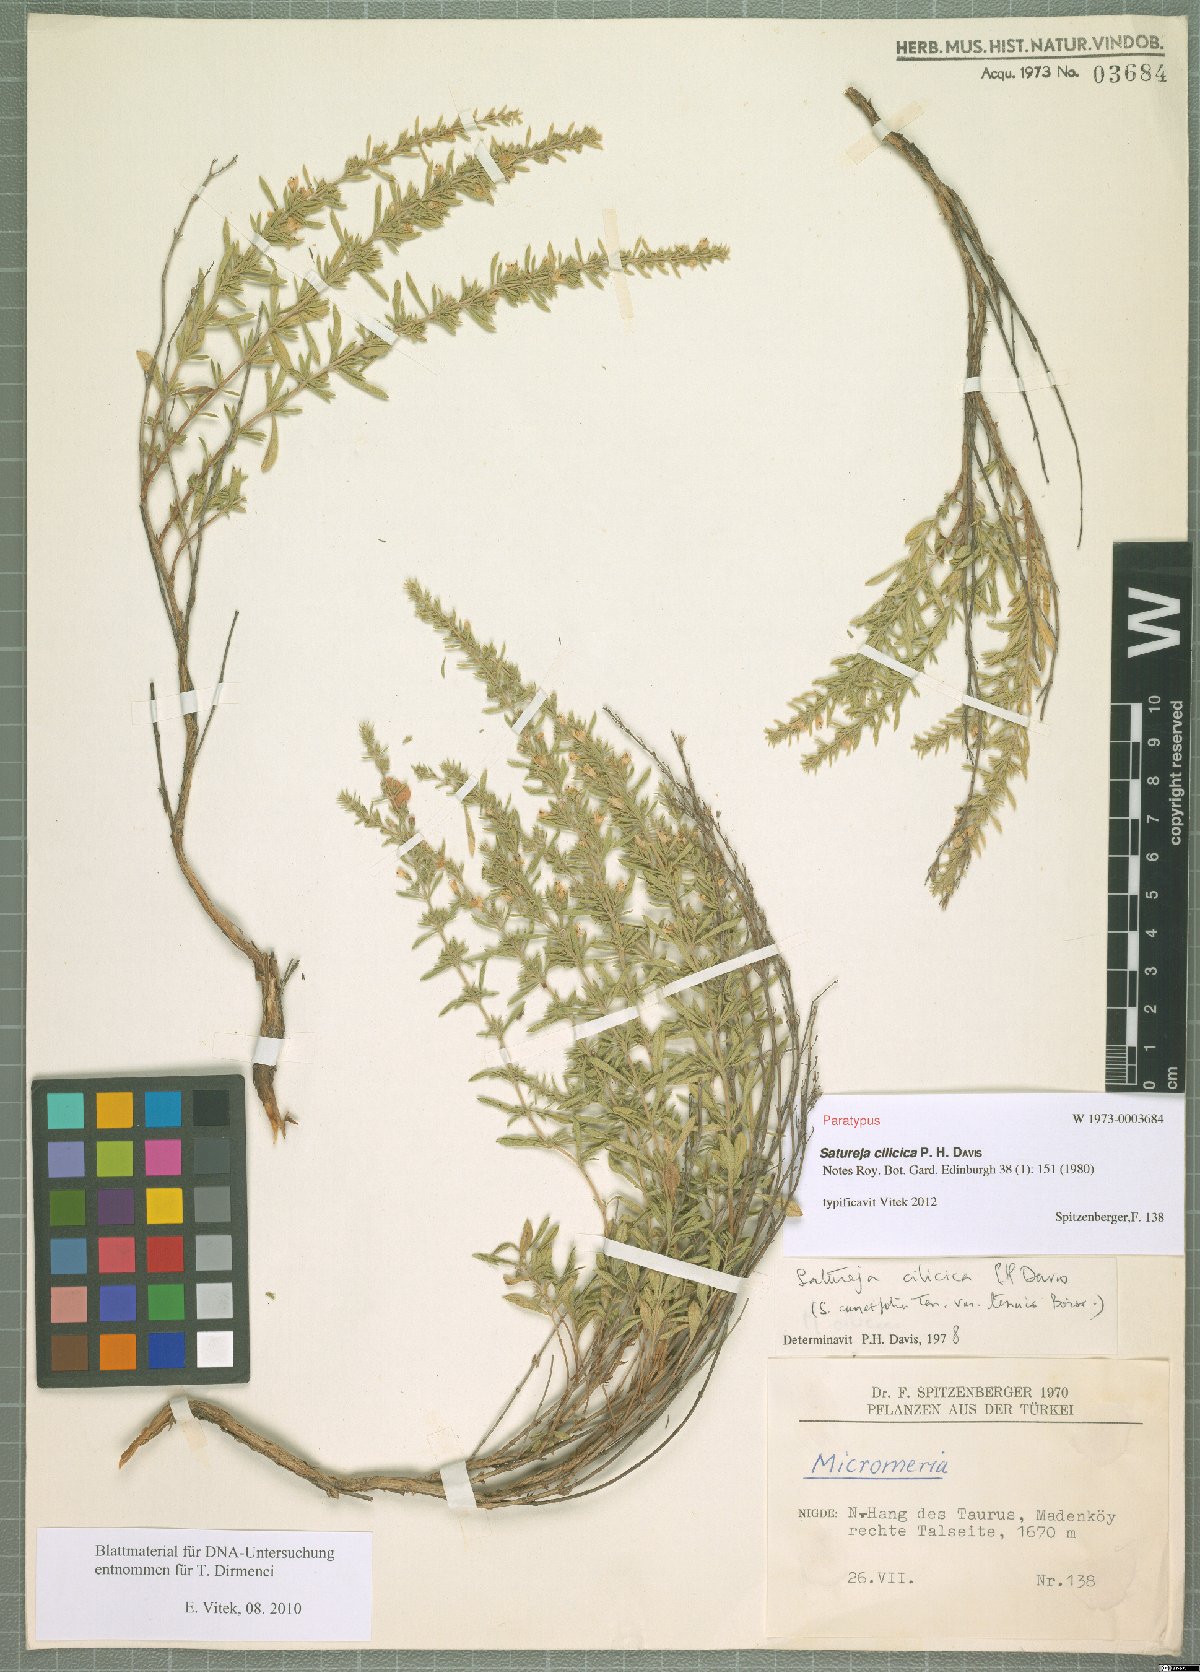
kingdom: Plantae
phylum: Tracheophyta
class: Magnoliopsida
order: Lamiales
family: Lamiaceae
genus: Satureja
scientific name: Satureja cilicica
